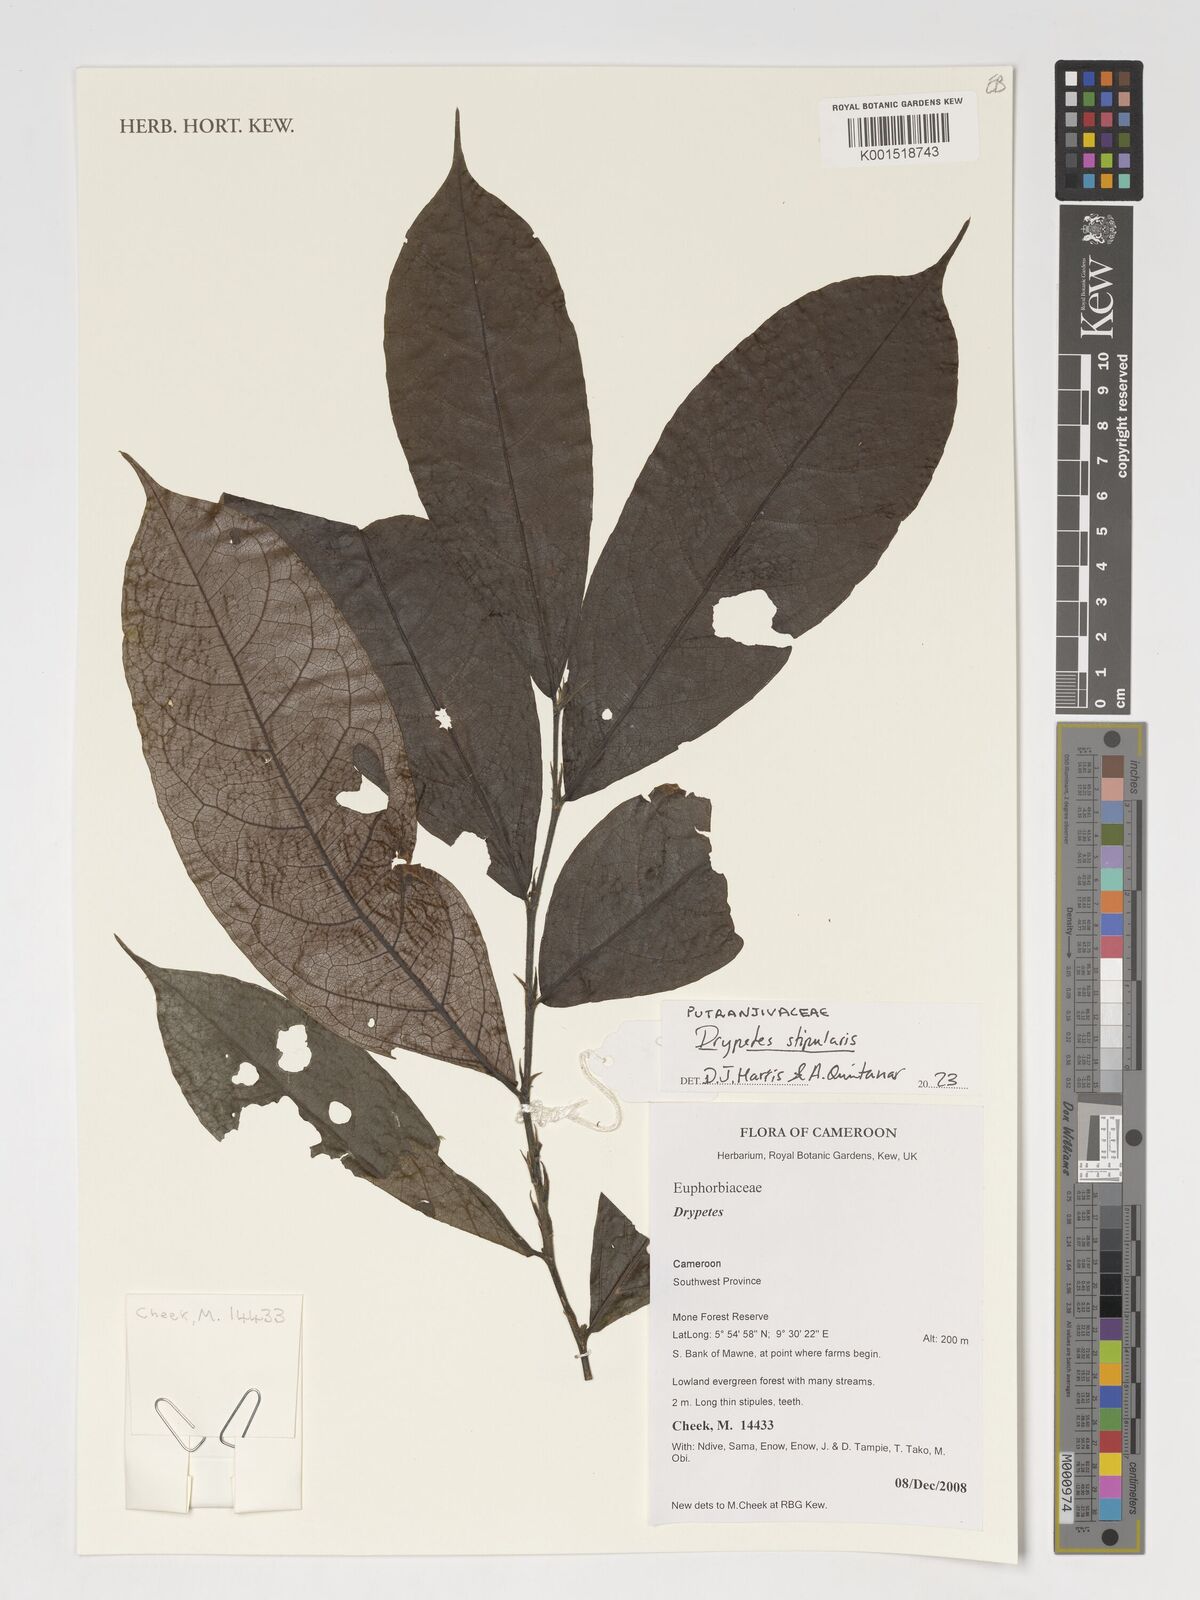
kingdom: Plantae
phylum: Tracheophyta
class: Magnoliopsida
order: Malpighiales
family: Putranjivaceae
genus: Drypetes
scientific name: Drypetes stipularis
